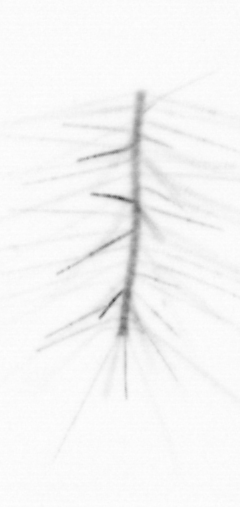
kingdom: Chromista
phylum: Ochrophyta
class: Bacillariophyceae
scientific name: Bacillariophyceae
